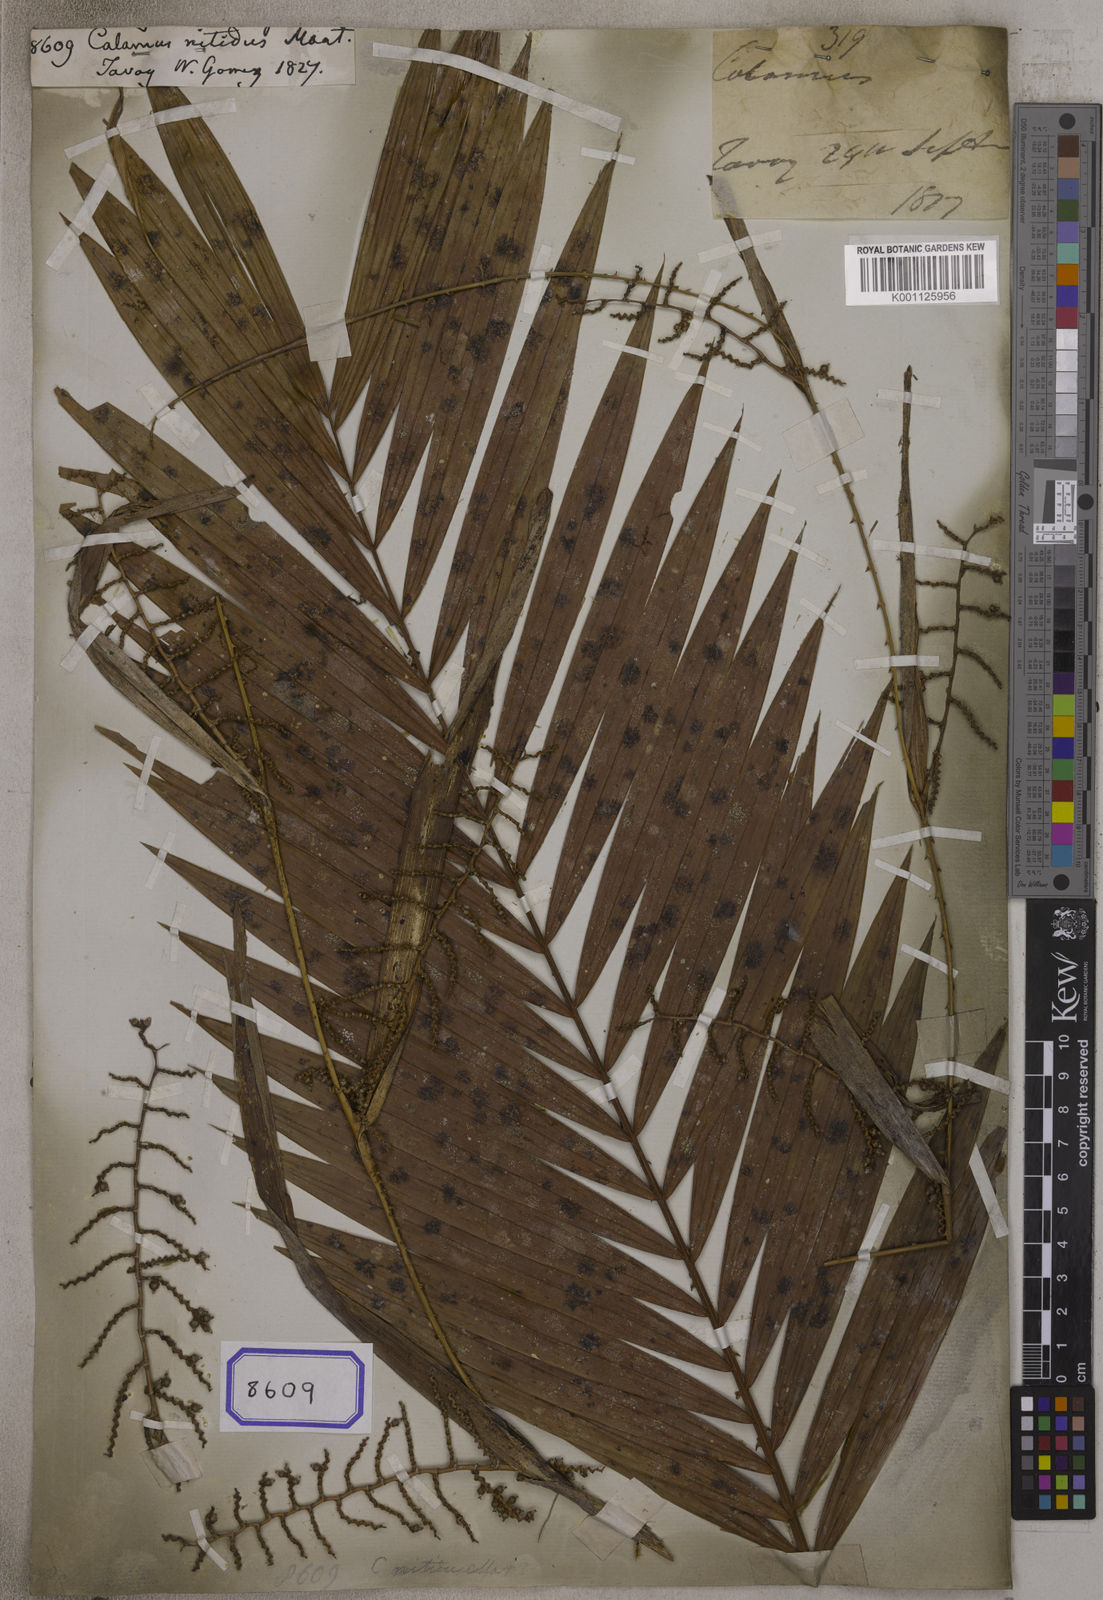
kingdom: Plantae
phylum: Tracheophyta
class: Liliopsida
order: Arecales
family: Arecaceae
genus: Calamus
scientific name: Calamus nitidus
